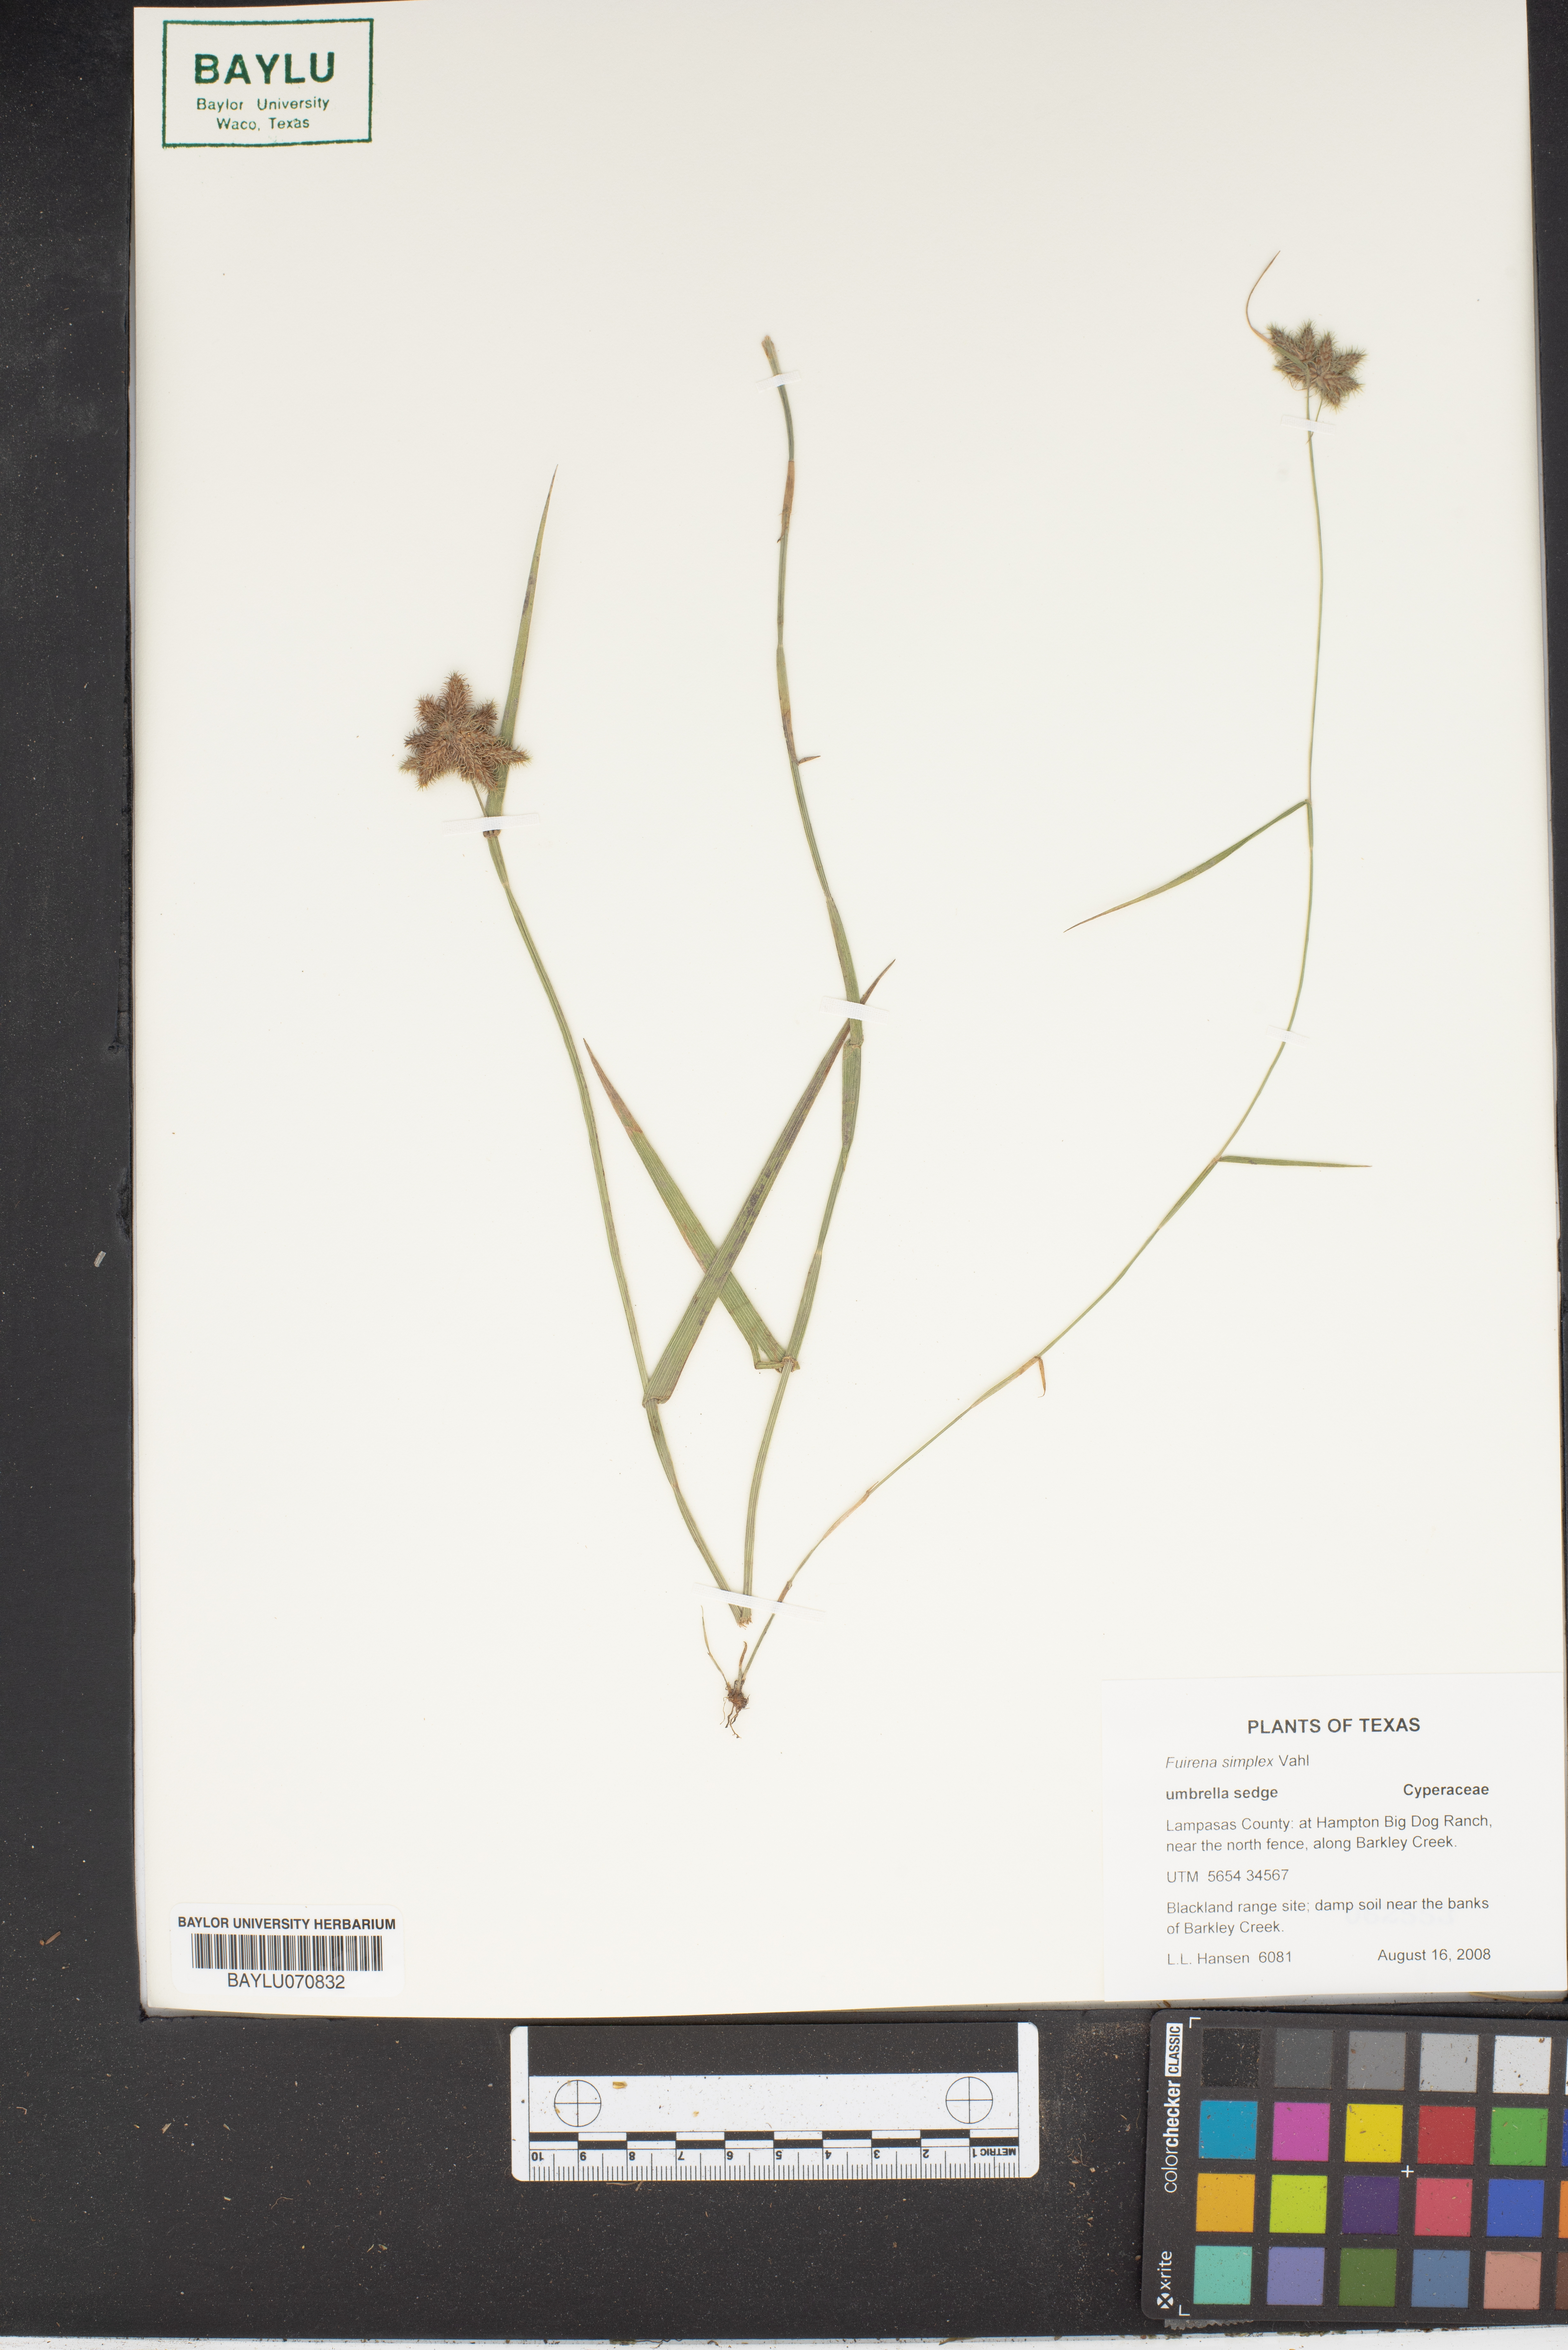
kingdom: Plantae
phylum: Tracheophyta
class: Liliopsida
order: Poales
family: Cyperaceae
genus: Fuirena
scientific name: Fuirena simplex
